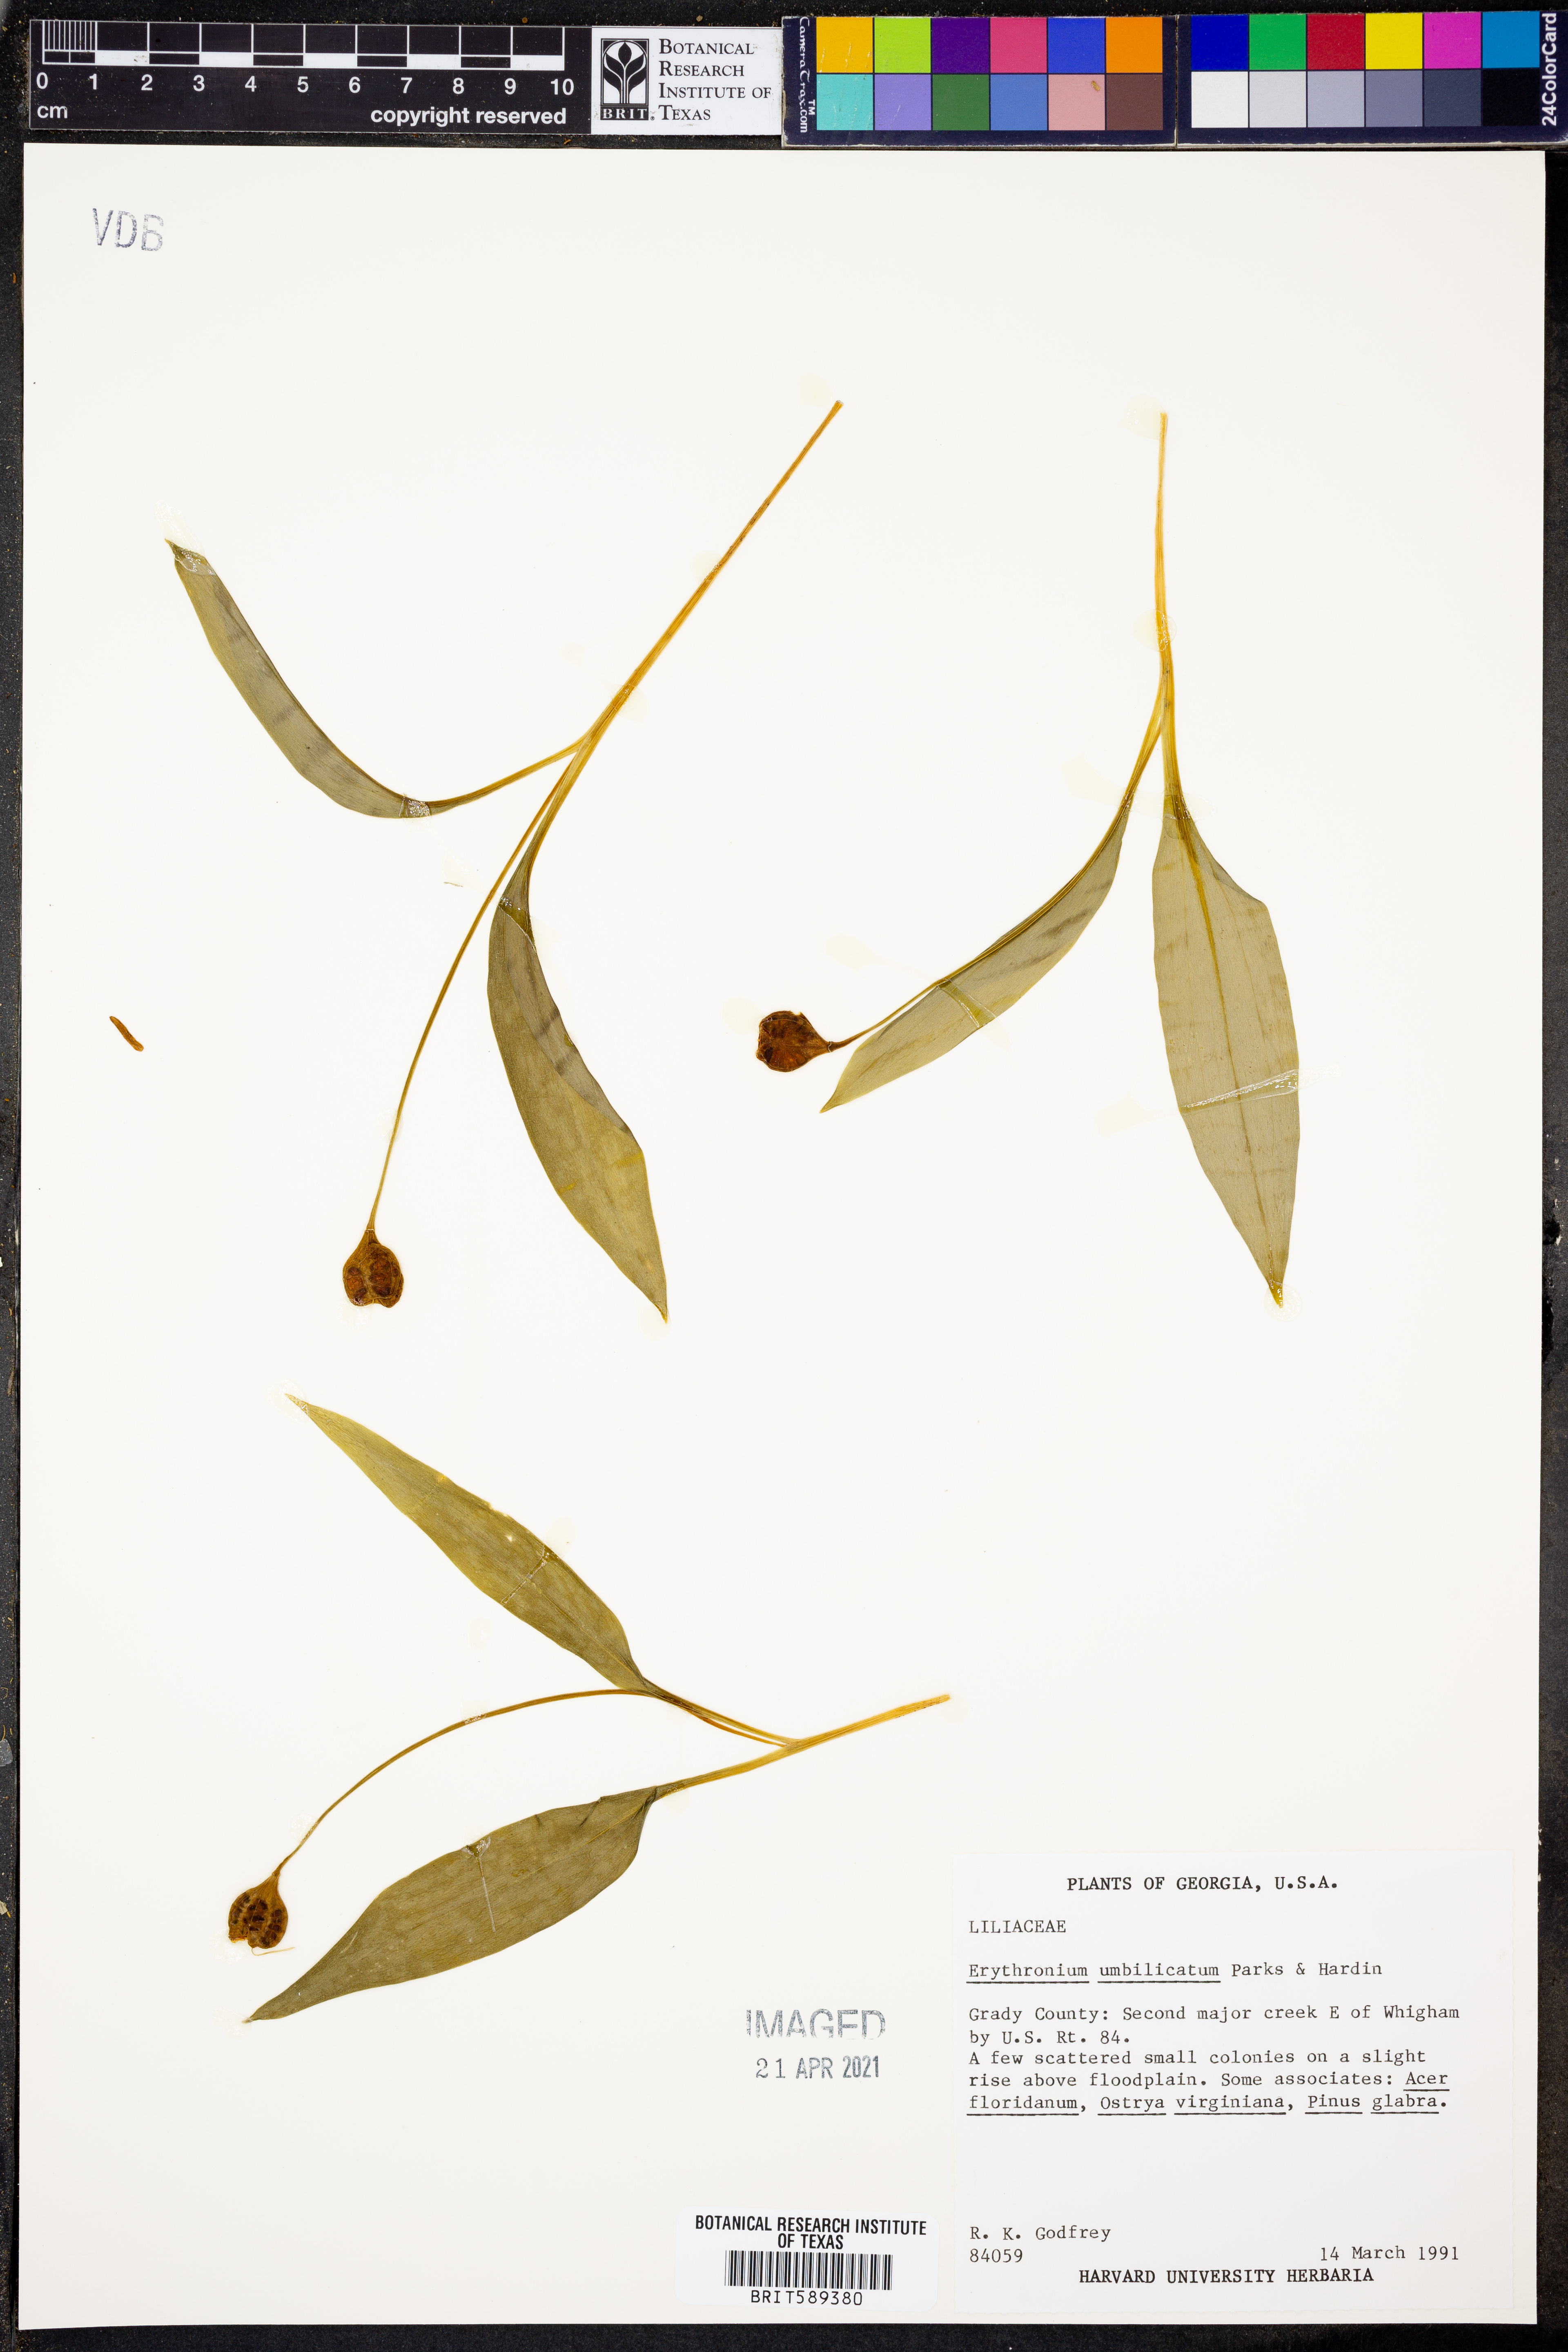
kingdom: Plantae
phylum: Tracheophyta
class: Liliopsida
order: Liliales
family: Liliaceae
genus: Erythronium
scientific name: Erythronium umbilicatum
